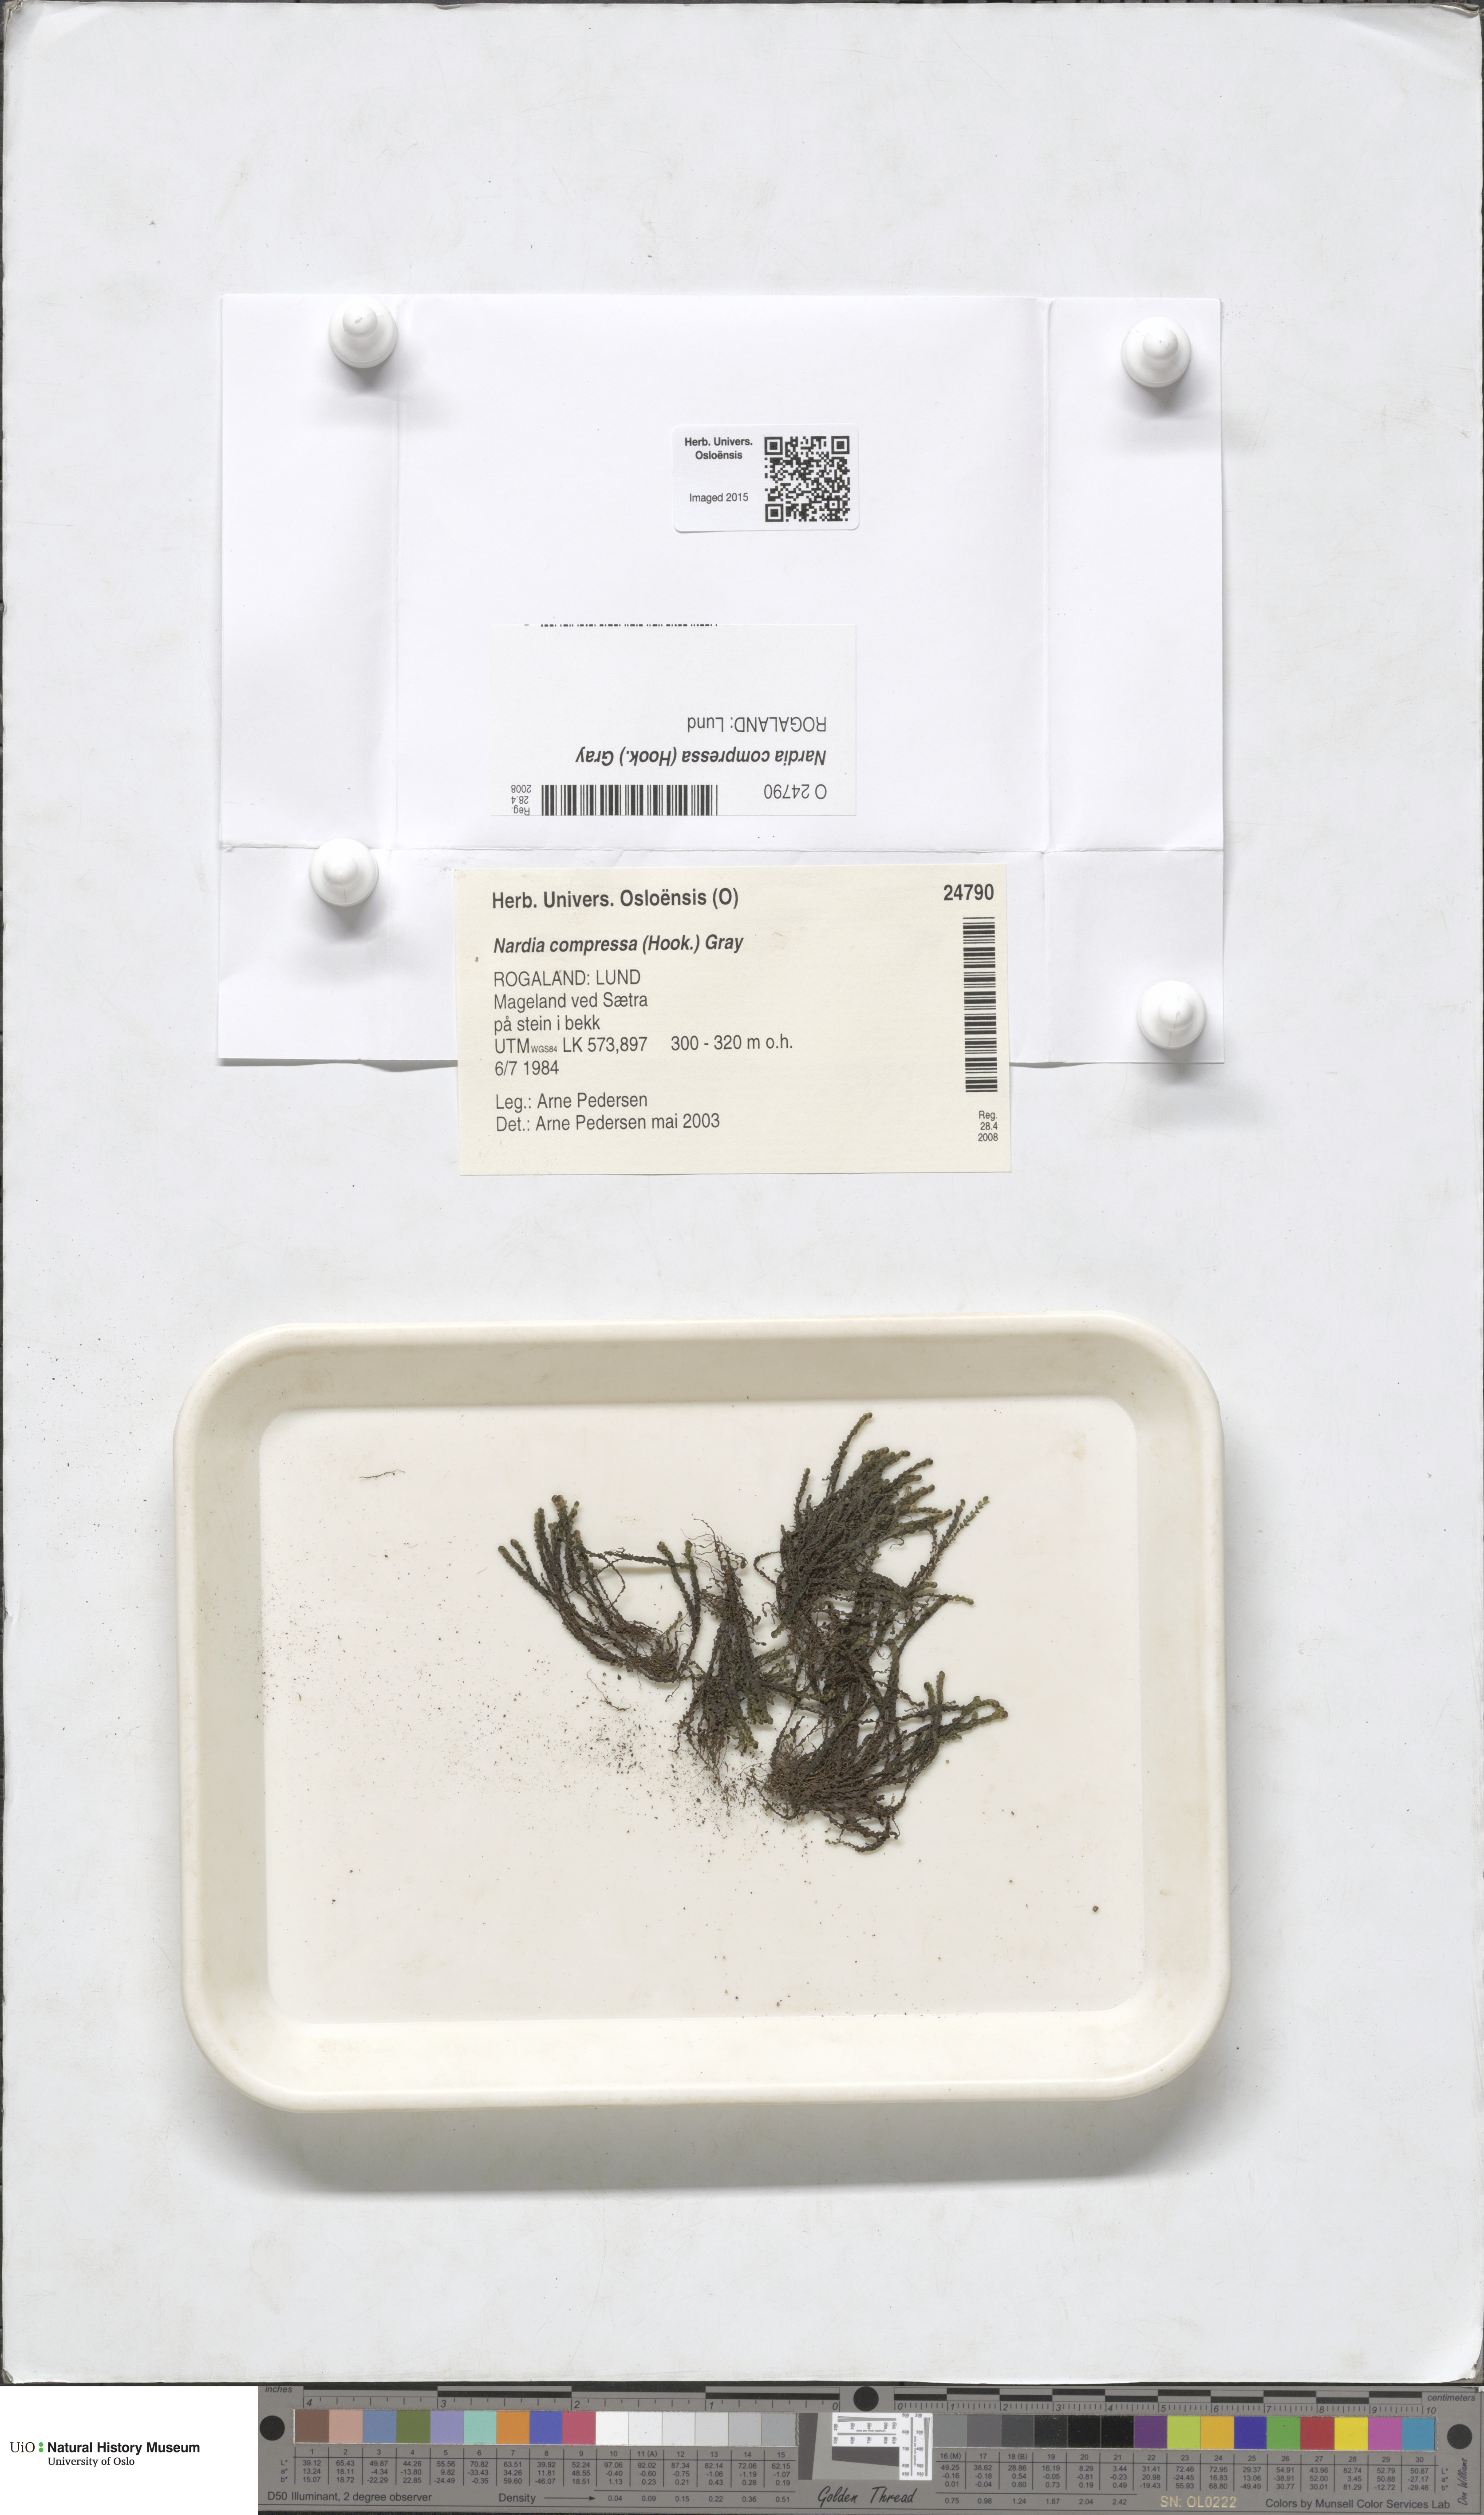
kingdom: Plantae
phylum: Marchantiophyta
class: Jungermanniopsida
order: Jungermanniales
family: Gymnomitriaceae
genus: Nardia
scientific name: Nardia compressa
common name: Compressed flapwort
